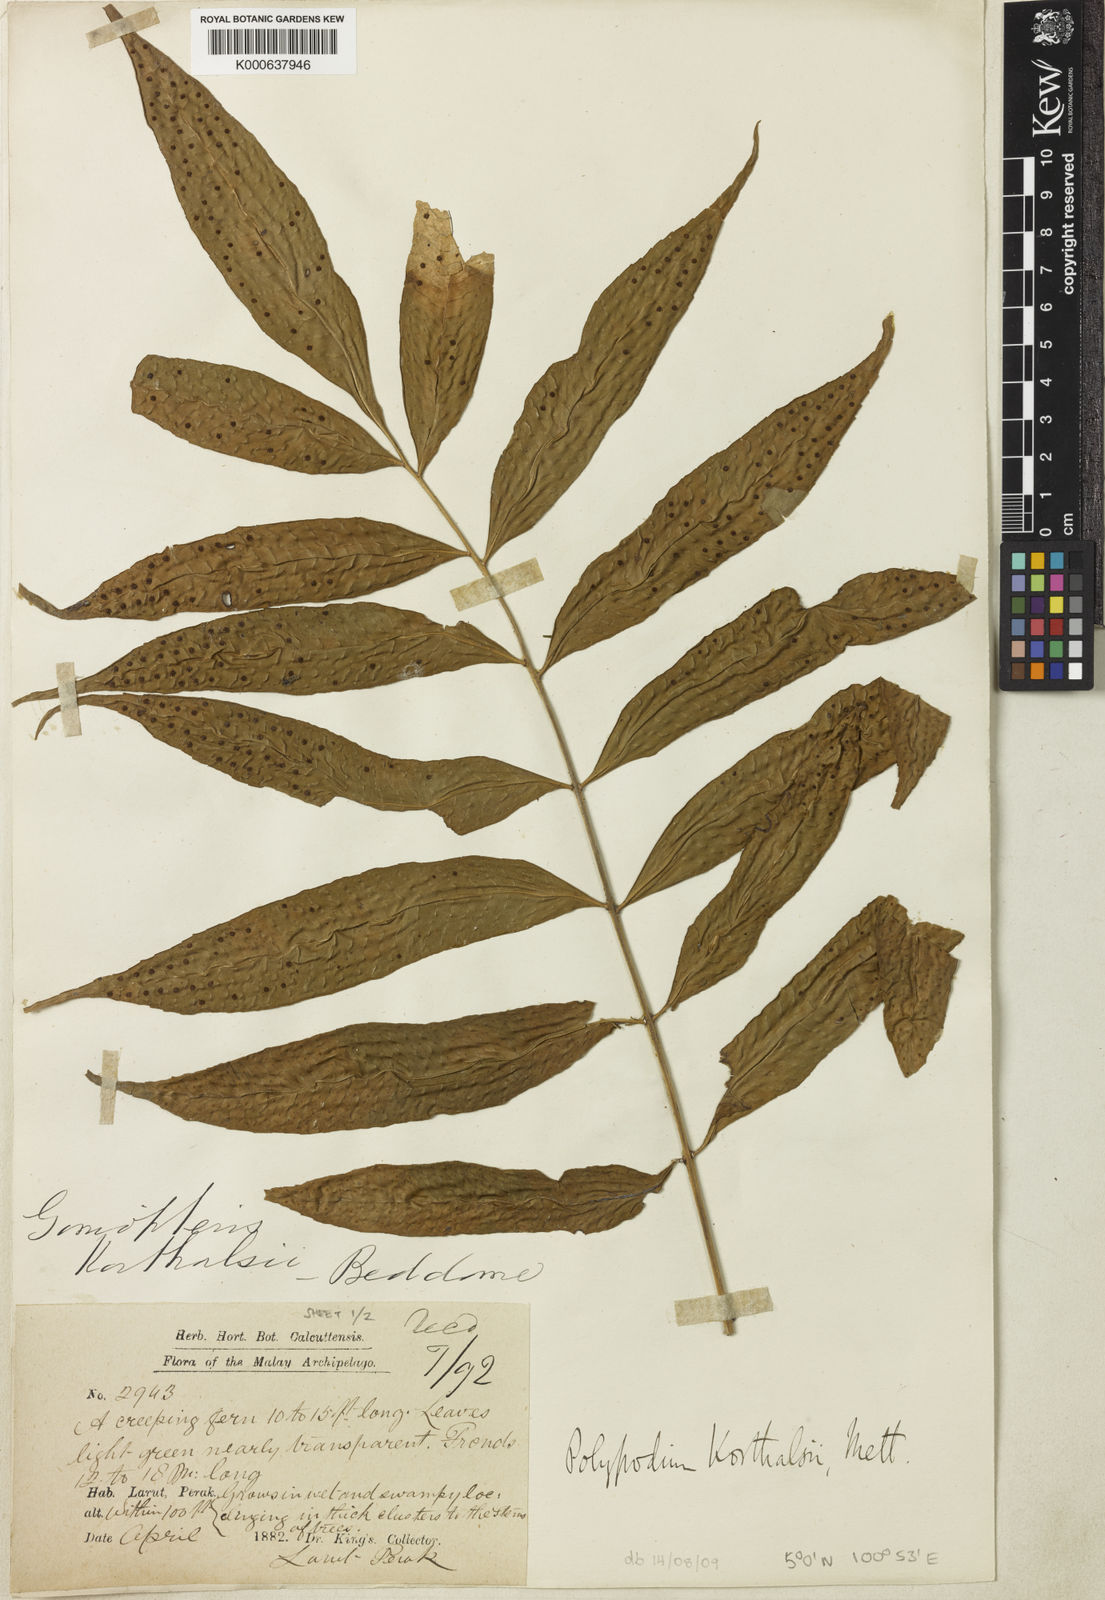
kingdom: Plantae
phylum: Tracheophyta
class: Polypodiopsida
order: Polypodiales
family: Polypodiaceae
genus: Goniophlebium
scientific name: Goniophlebium korthalsii
